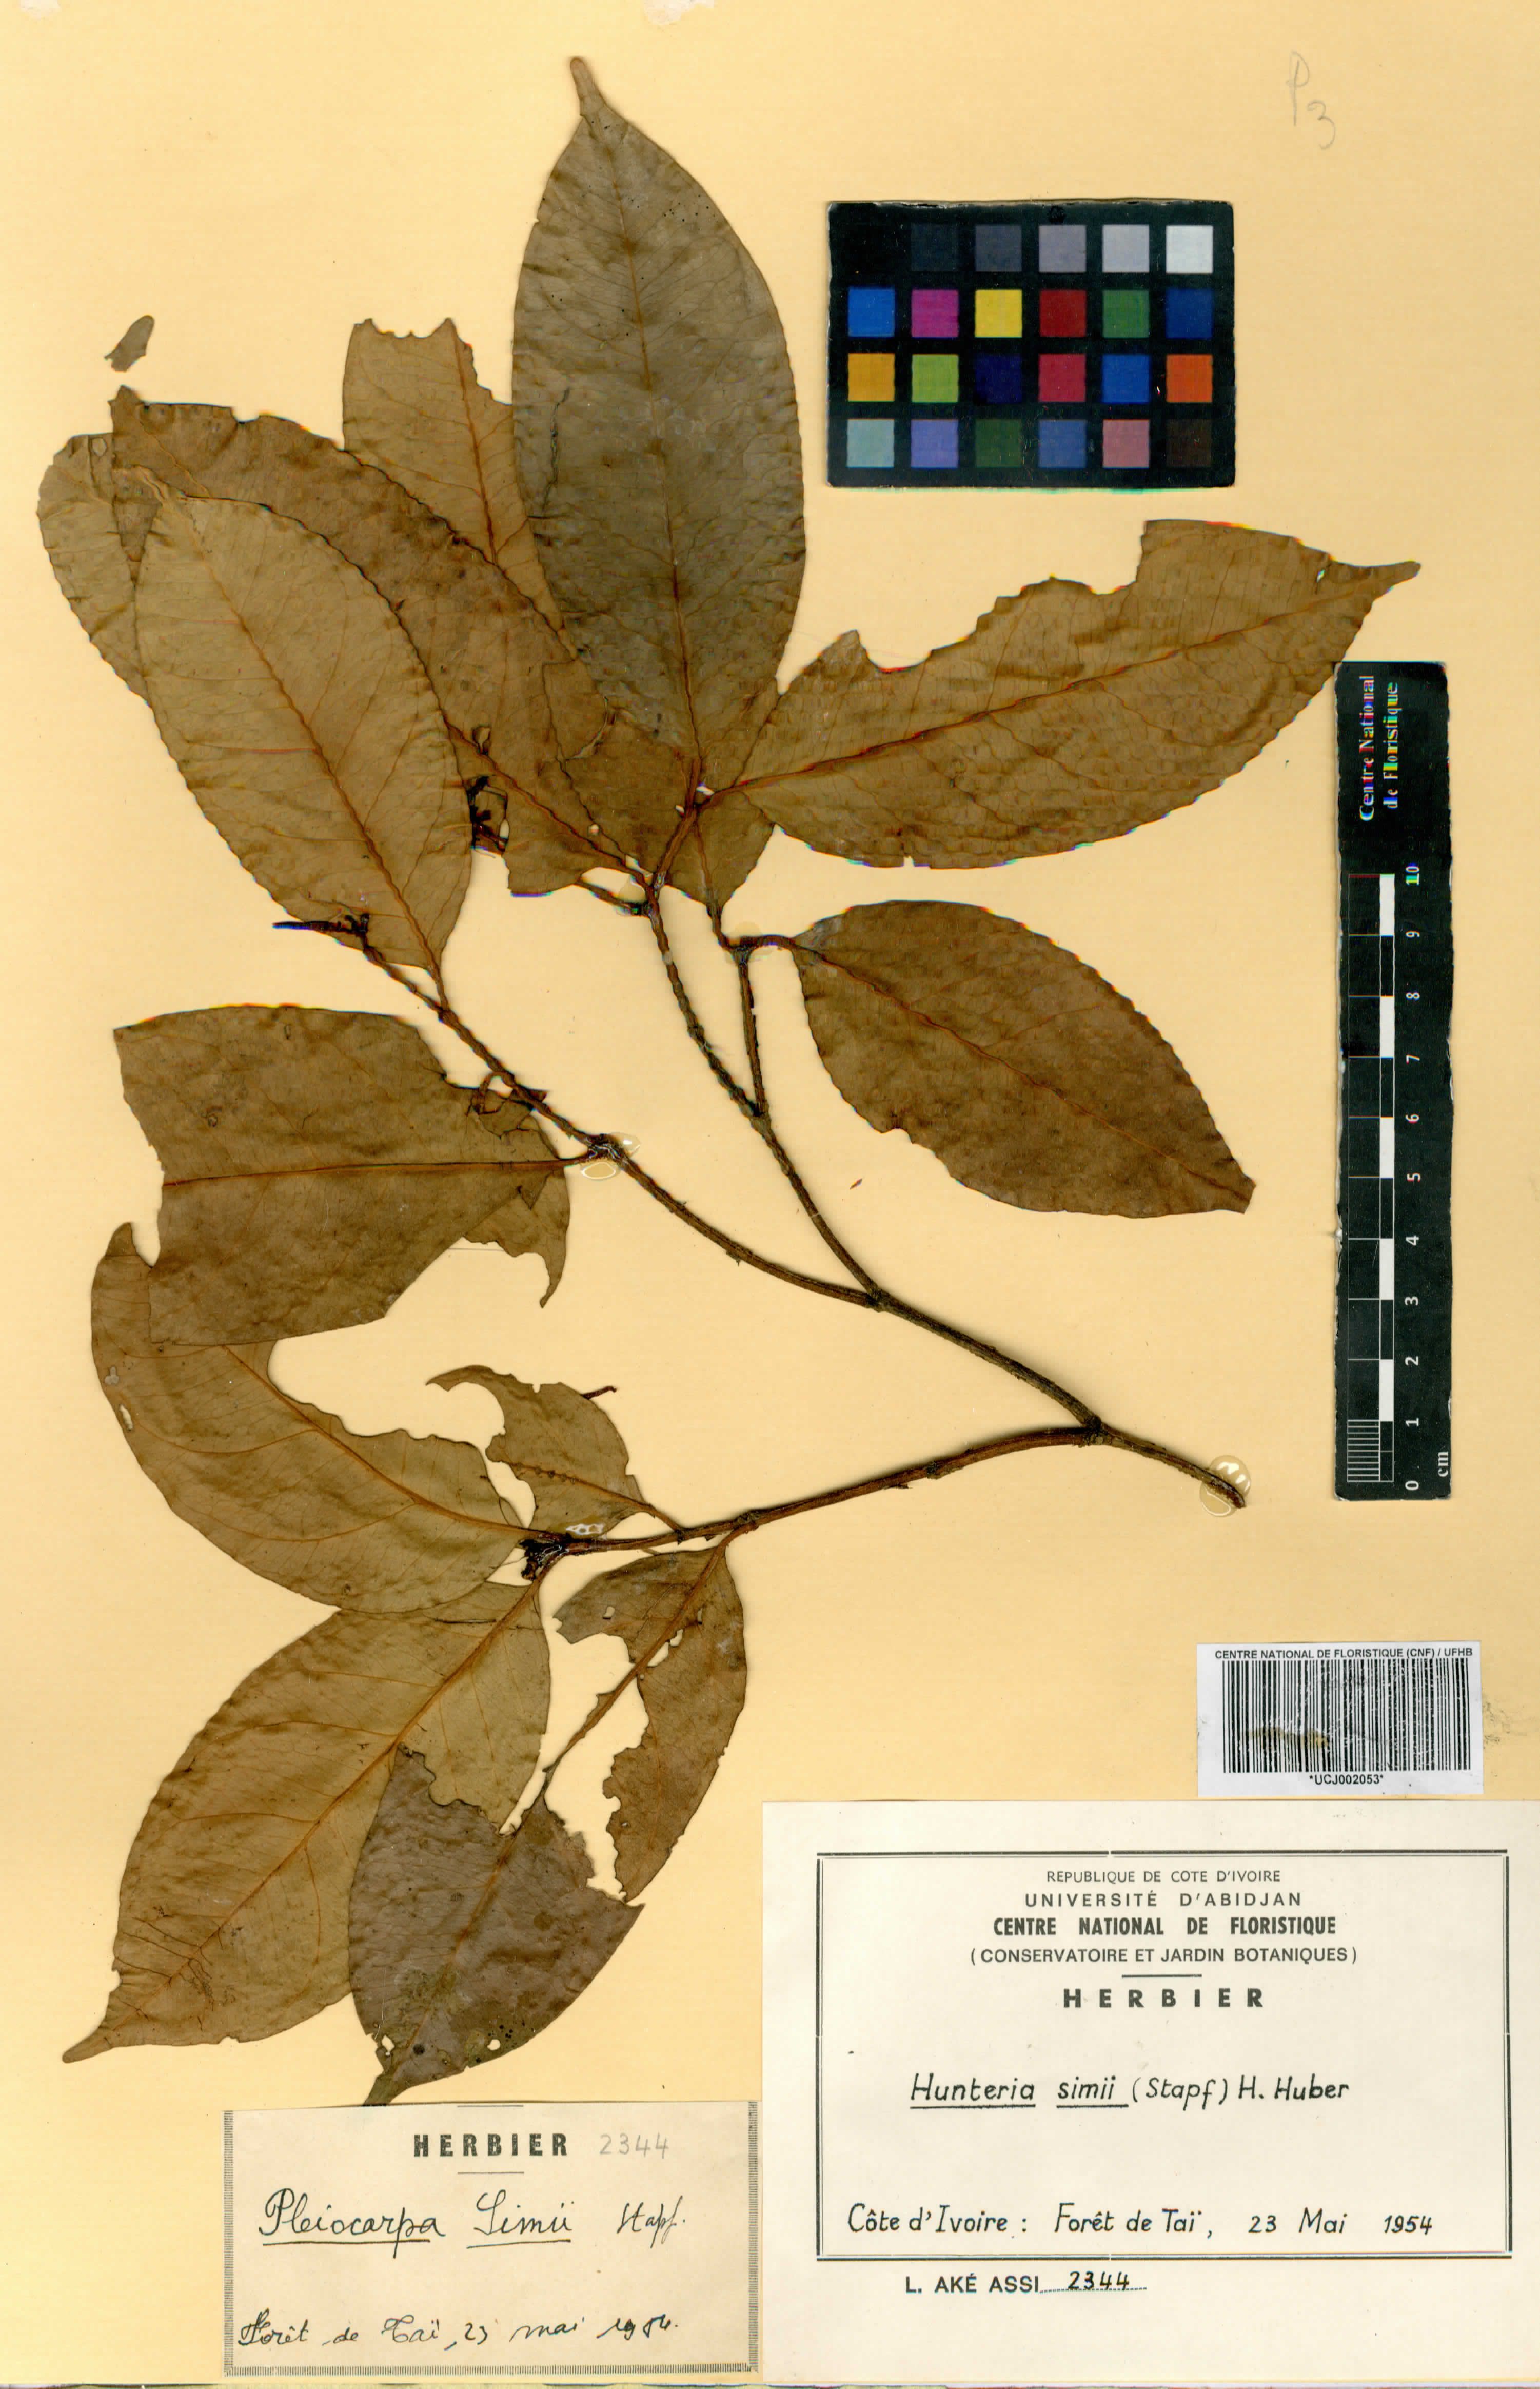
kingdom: Plantae
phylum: Tracheophyta
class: Magnoliopsida
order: Gentianales
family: Apocynaceae
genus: Hunteria
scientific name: Hunteria simii
